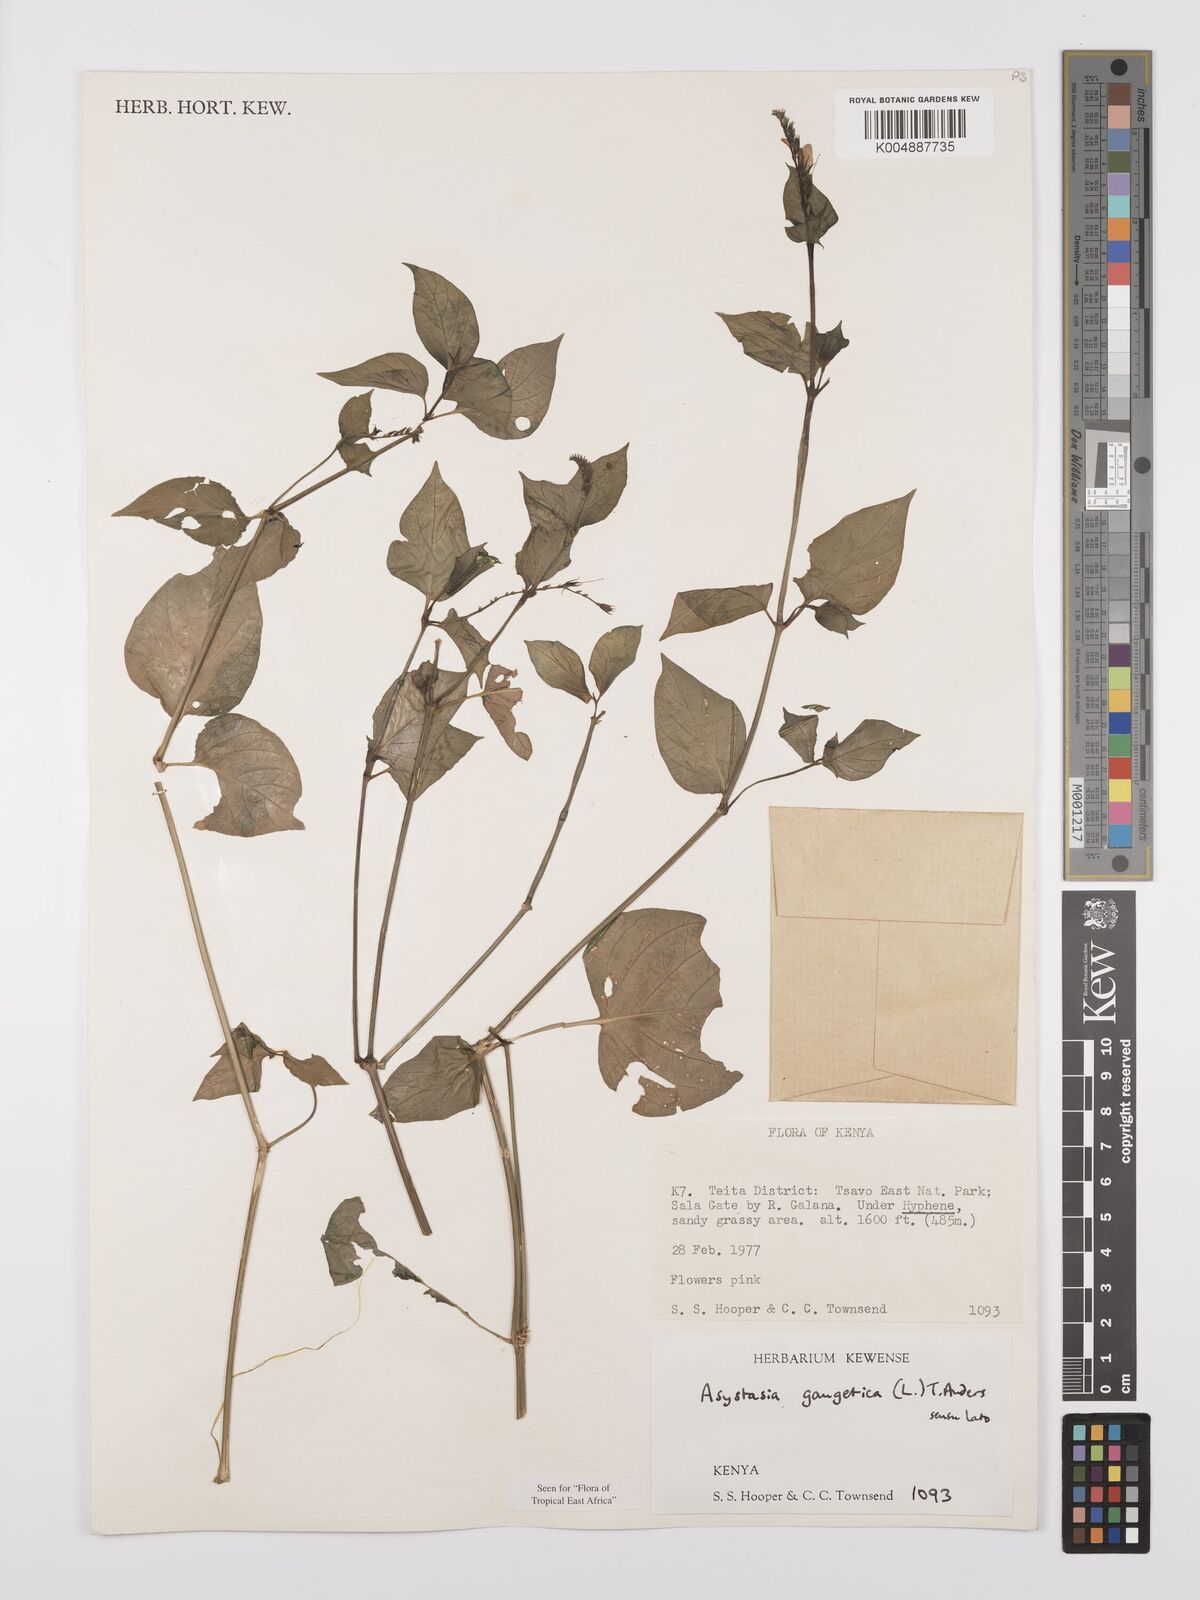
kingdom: Plantae
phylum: Tracheophyta
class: Magnoliopsida
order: Lamiales
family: Acanthaceae
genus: Asystasia
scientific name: Asystasia gangetica
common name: Chinese violet
